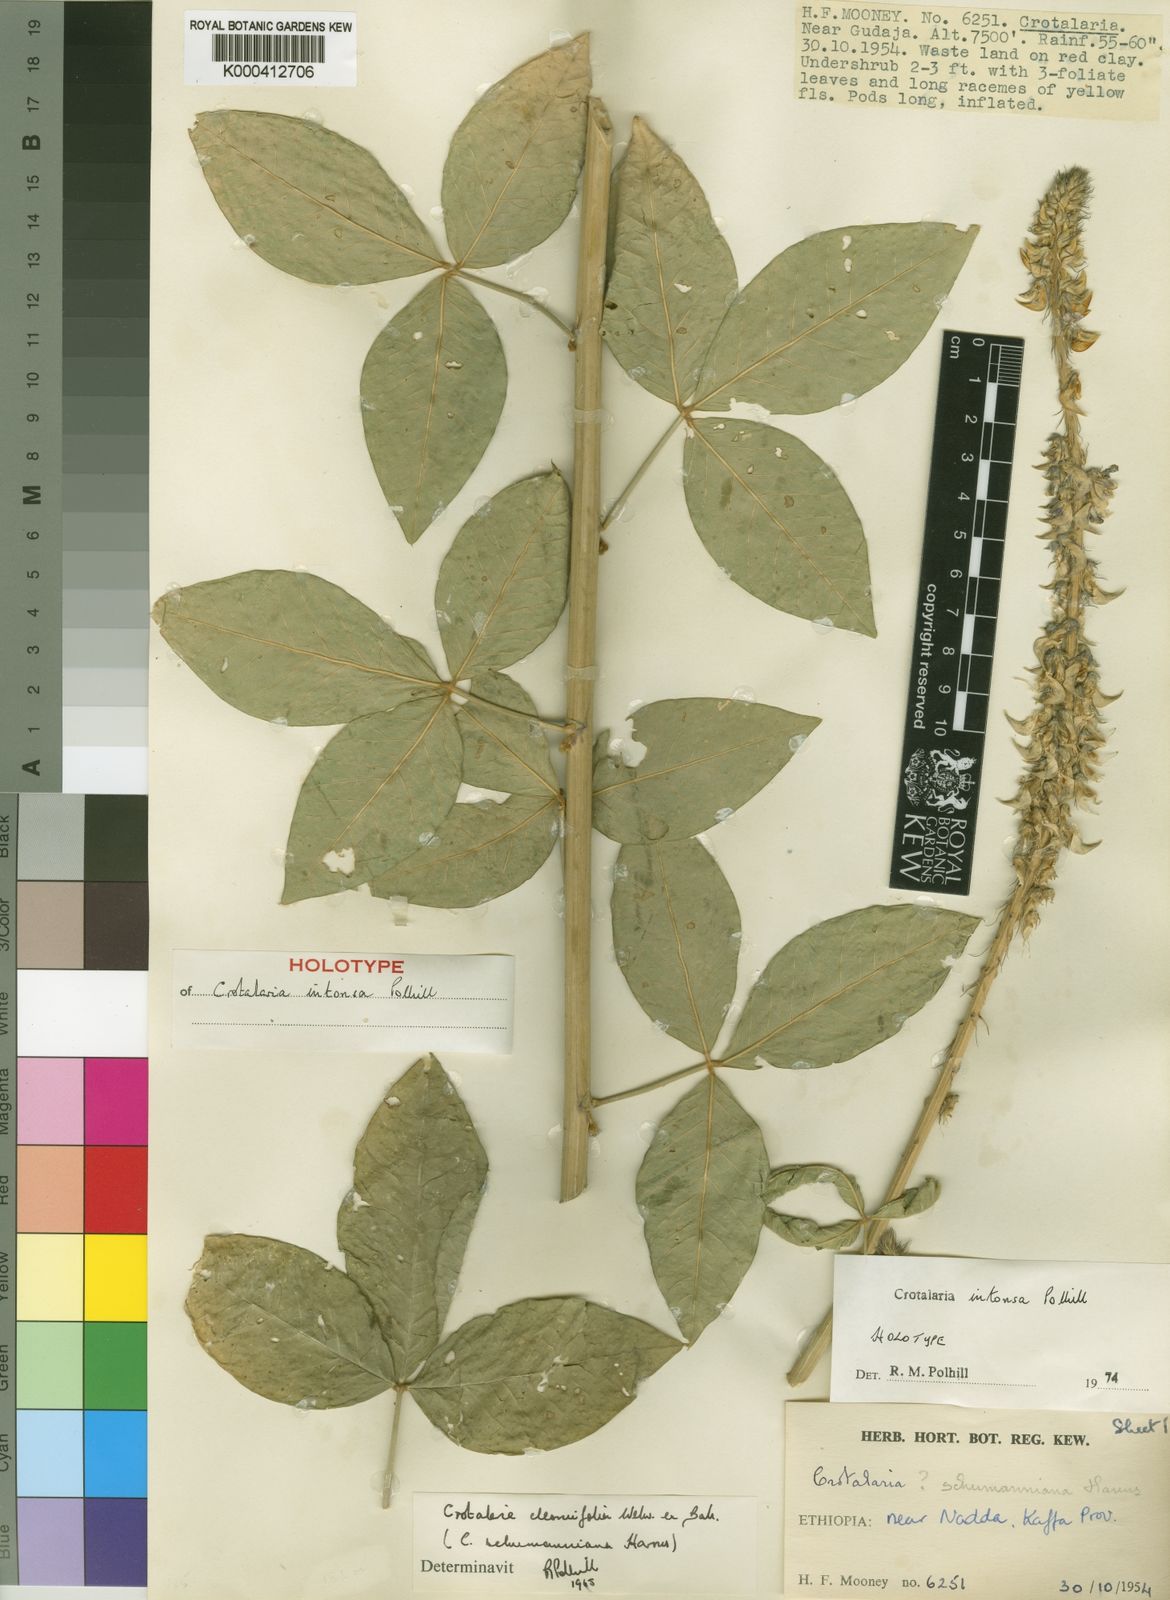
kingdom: Plantae
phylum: Tracheophyta
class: Magnoliopsida
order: Fabales
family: Fabaceae
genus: Crotalaria
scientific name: Crotalaria intonsa
